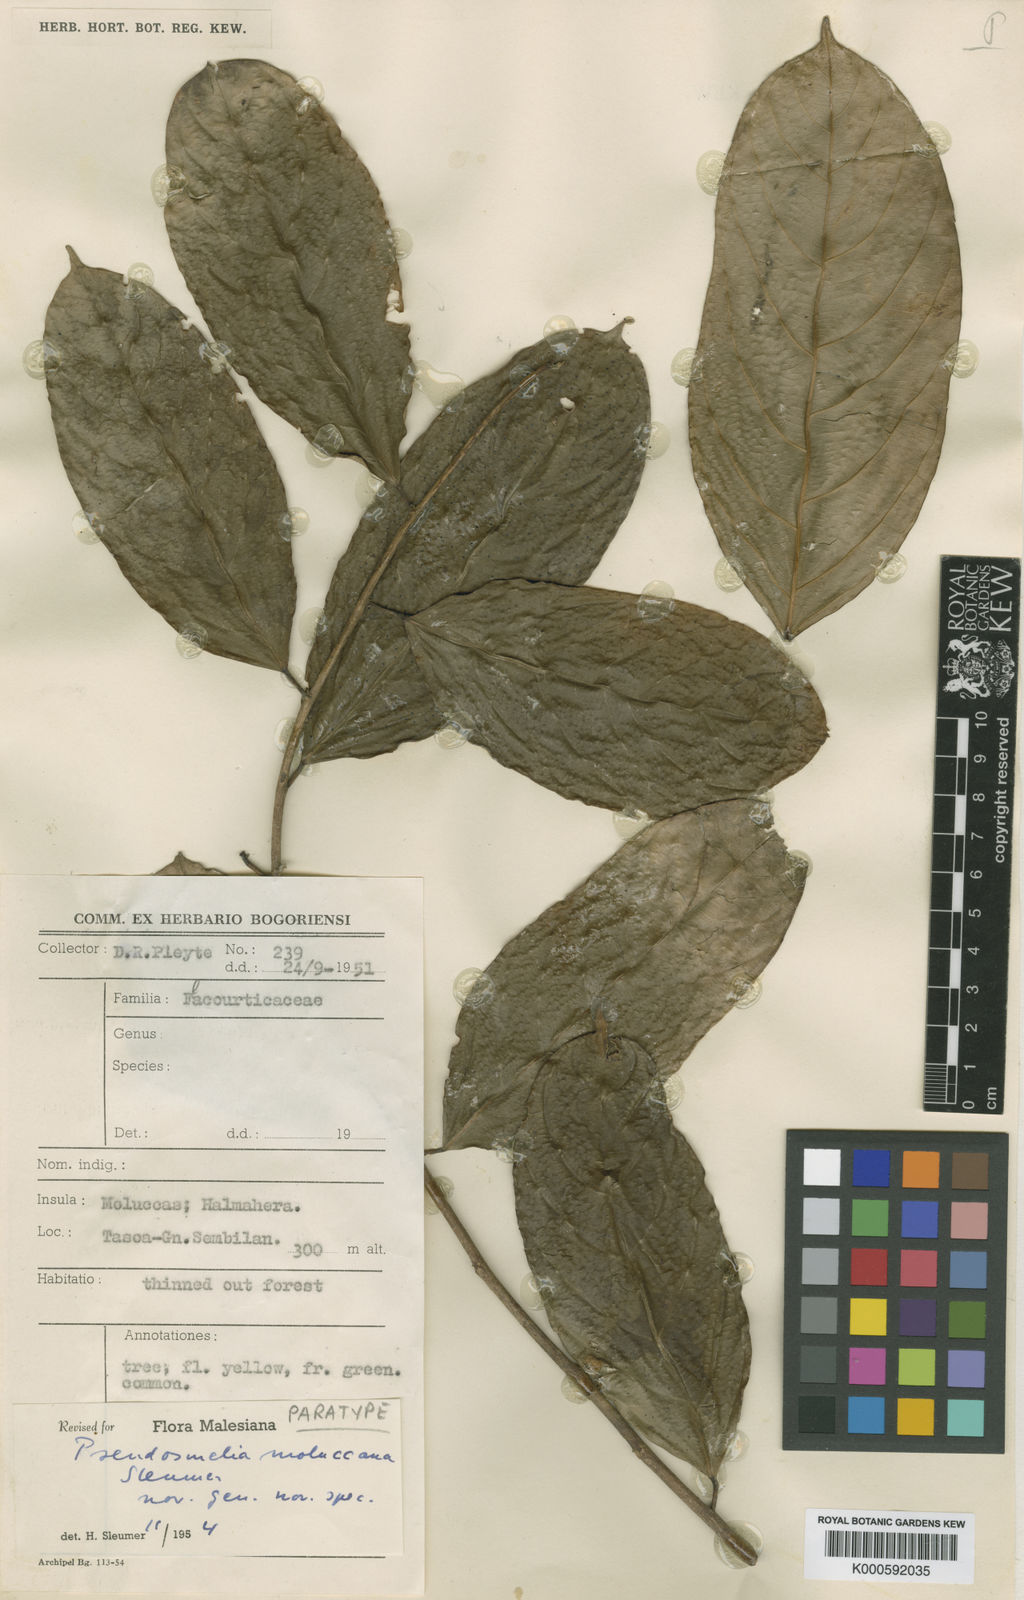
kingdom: Plantae
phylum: Tracheophyta
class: Magnoliopsida
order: Malpighiales
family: Salicaceae
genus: Osmelia
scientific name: Osmelia moluccana
